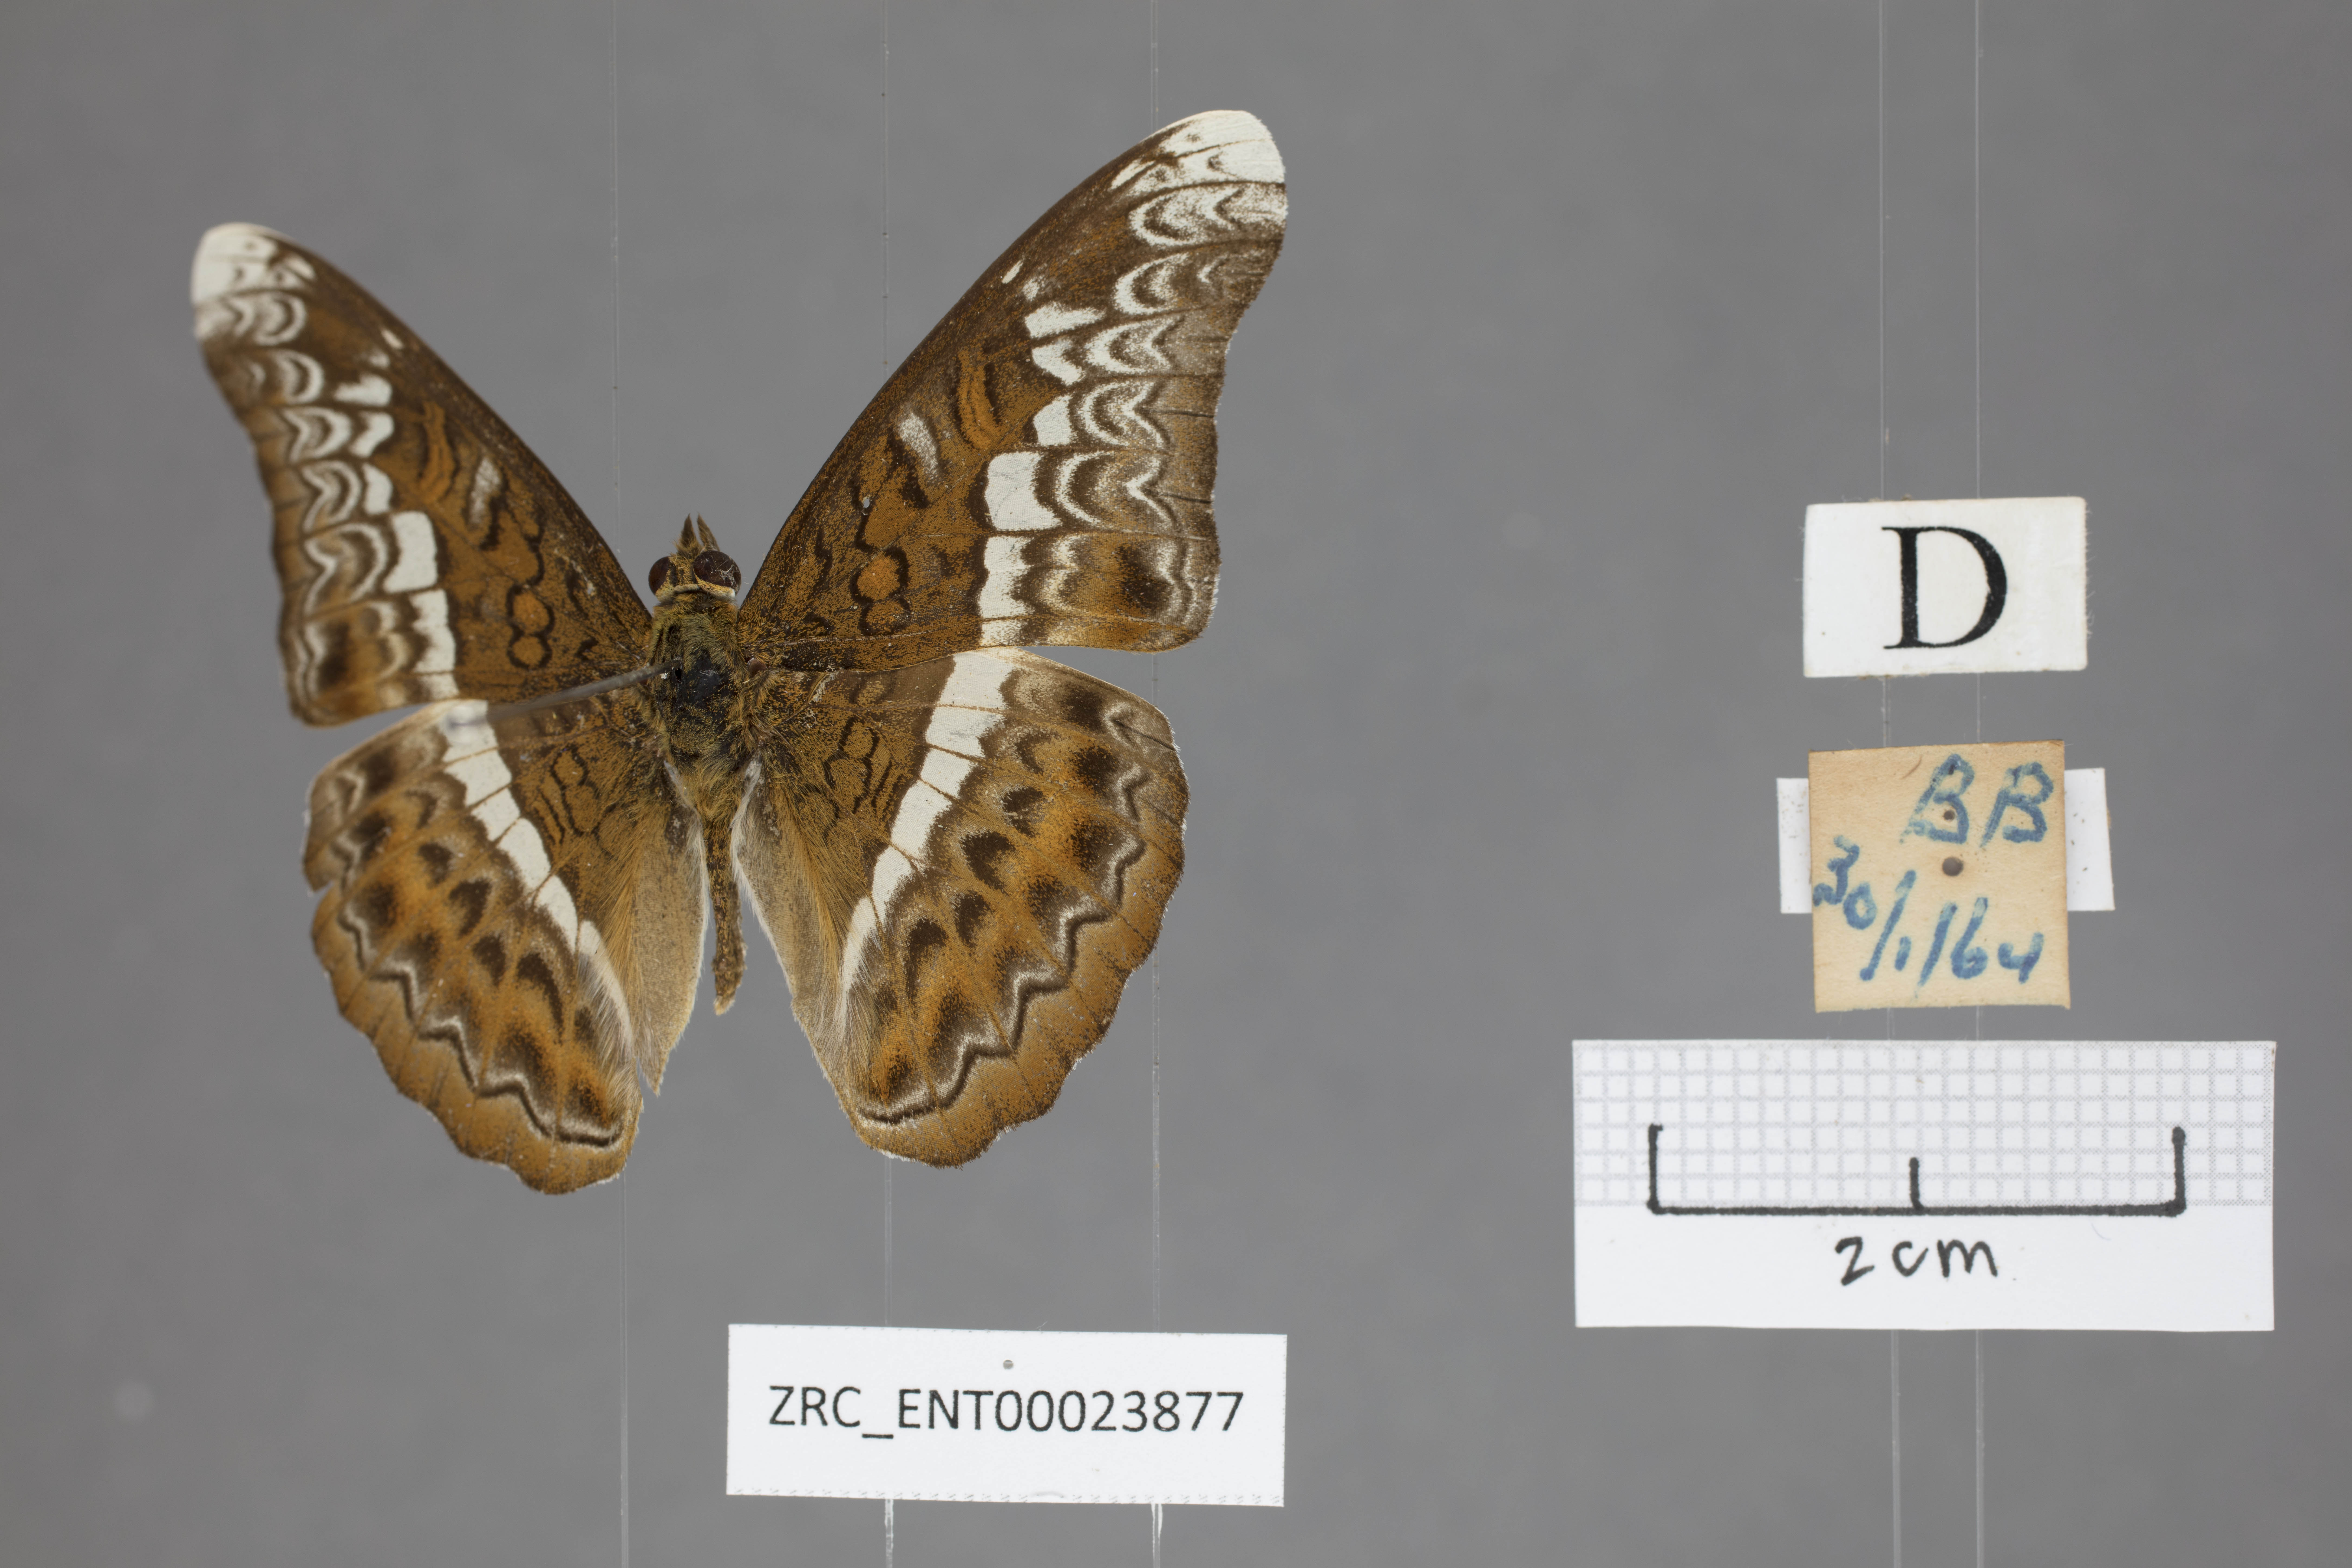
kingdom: Animalia
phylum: Arthropoda
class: Insecta
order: Lepidoptera
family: Nymphalidae
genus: Lebadea
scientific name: Lebadea martha
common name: Knight
